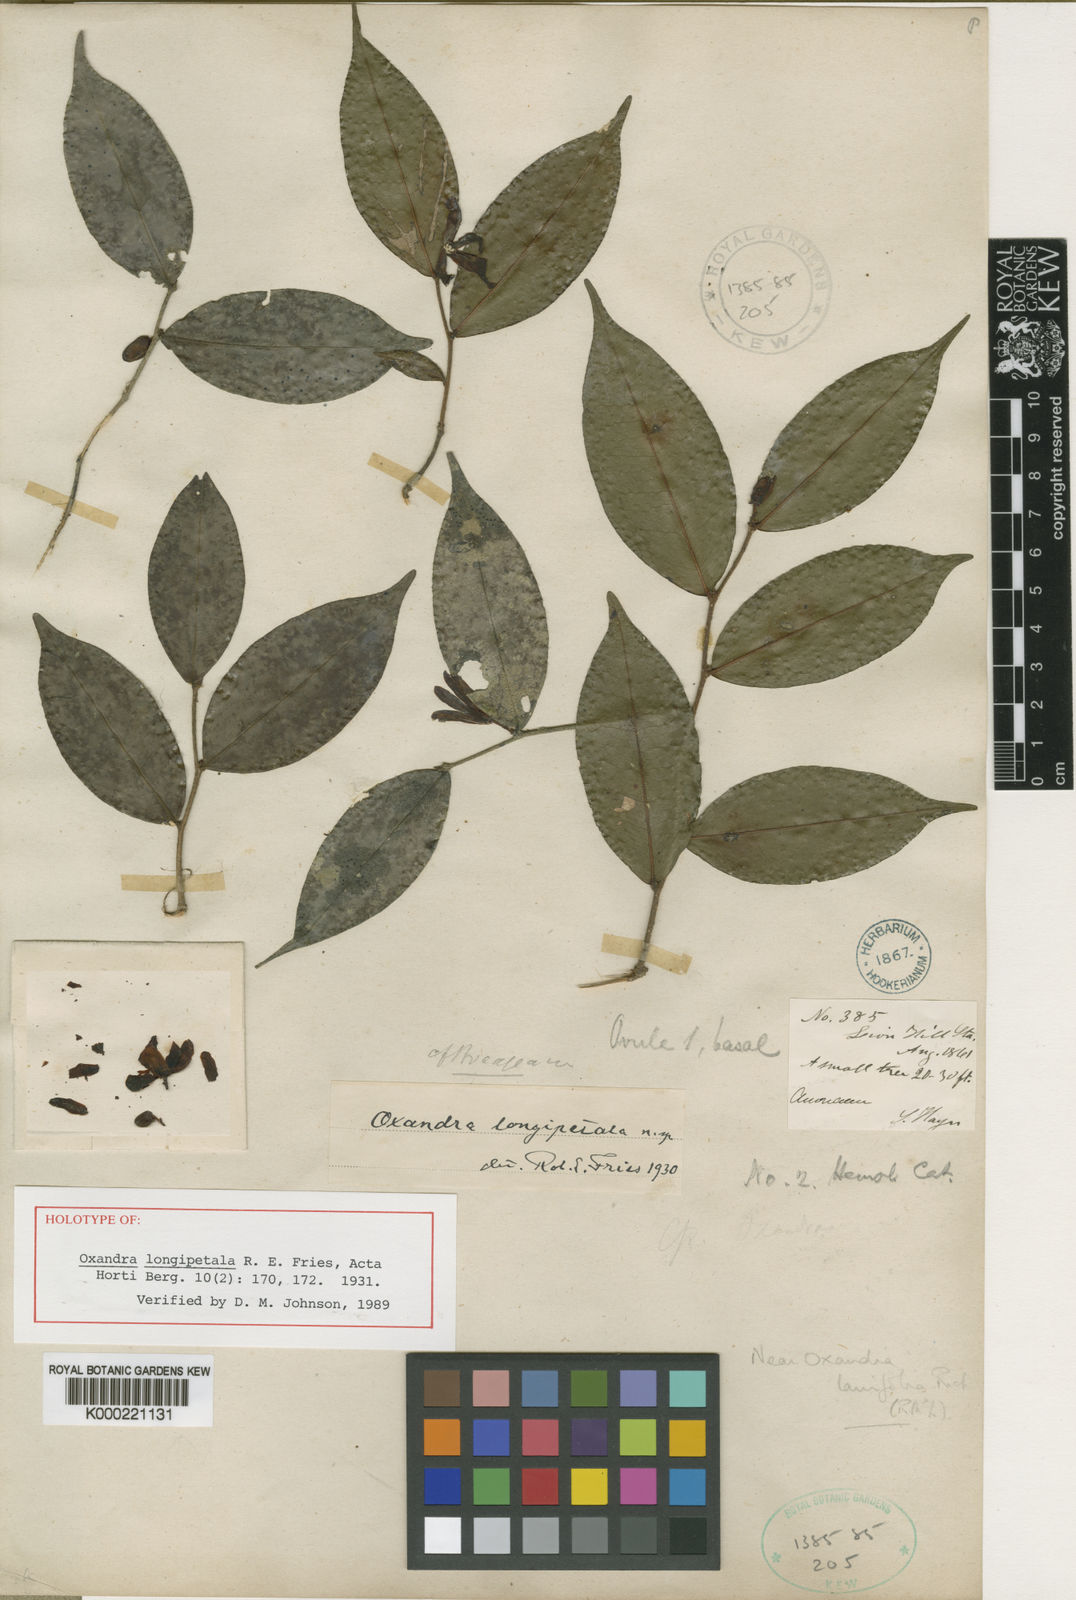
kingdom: Plantae
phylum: Tracheophyta
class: Magnoliopsida
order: Magnoliales
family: Annonaceae
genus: Oxandra
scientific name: Oxandra longipetala
